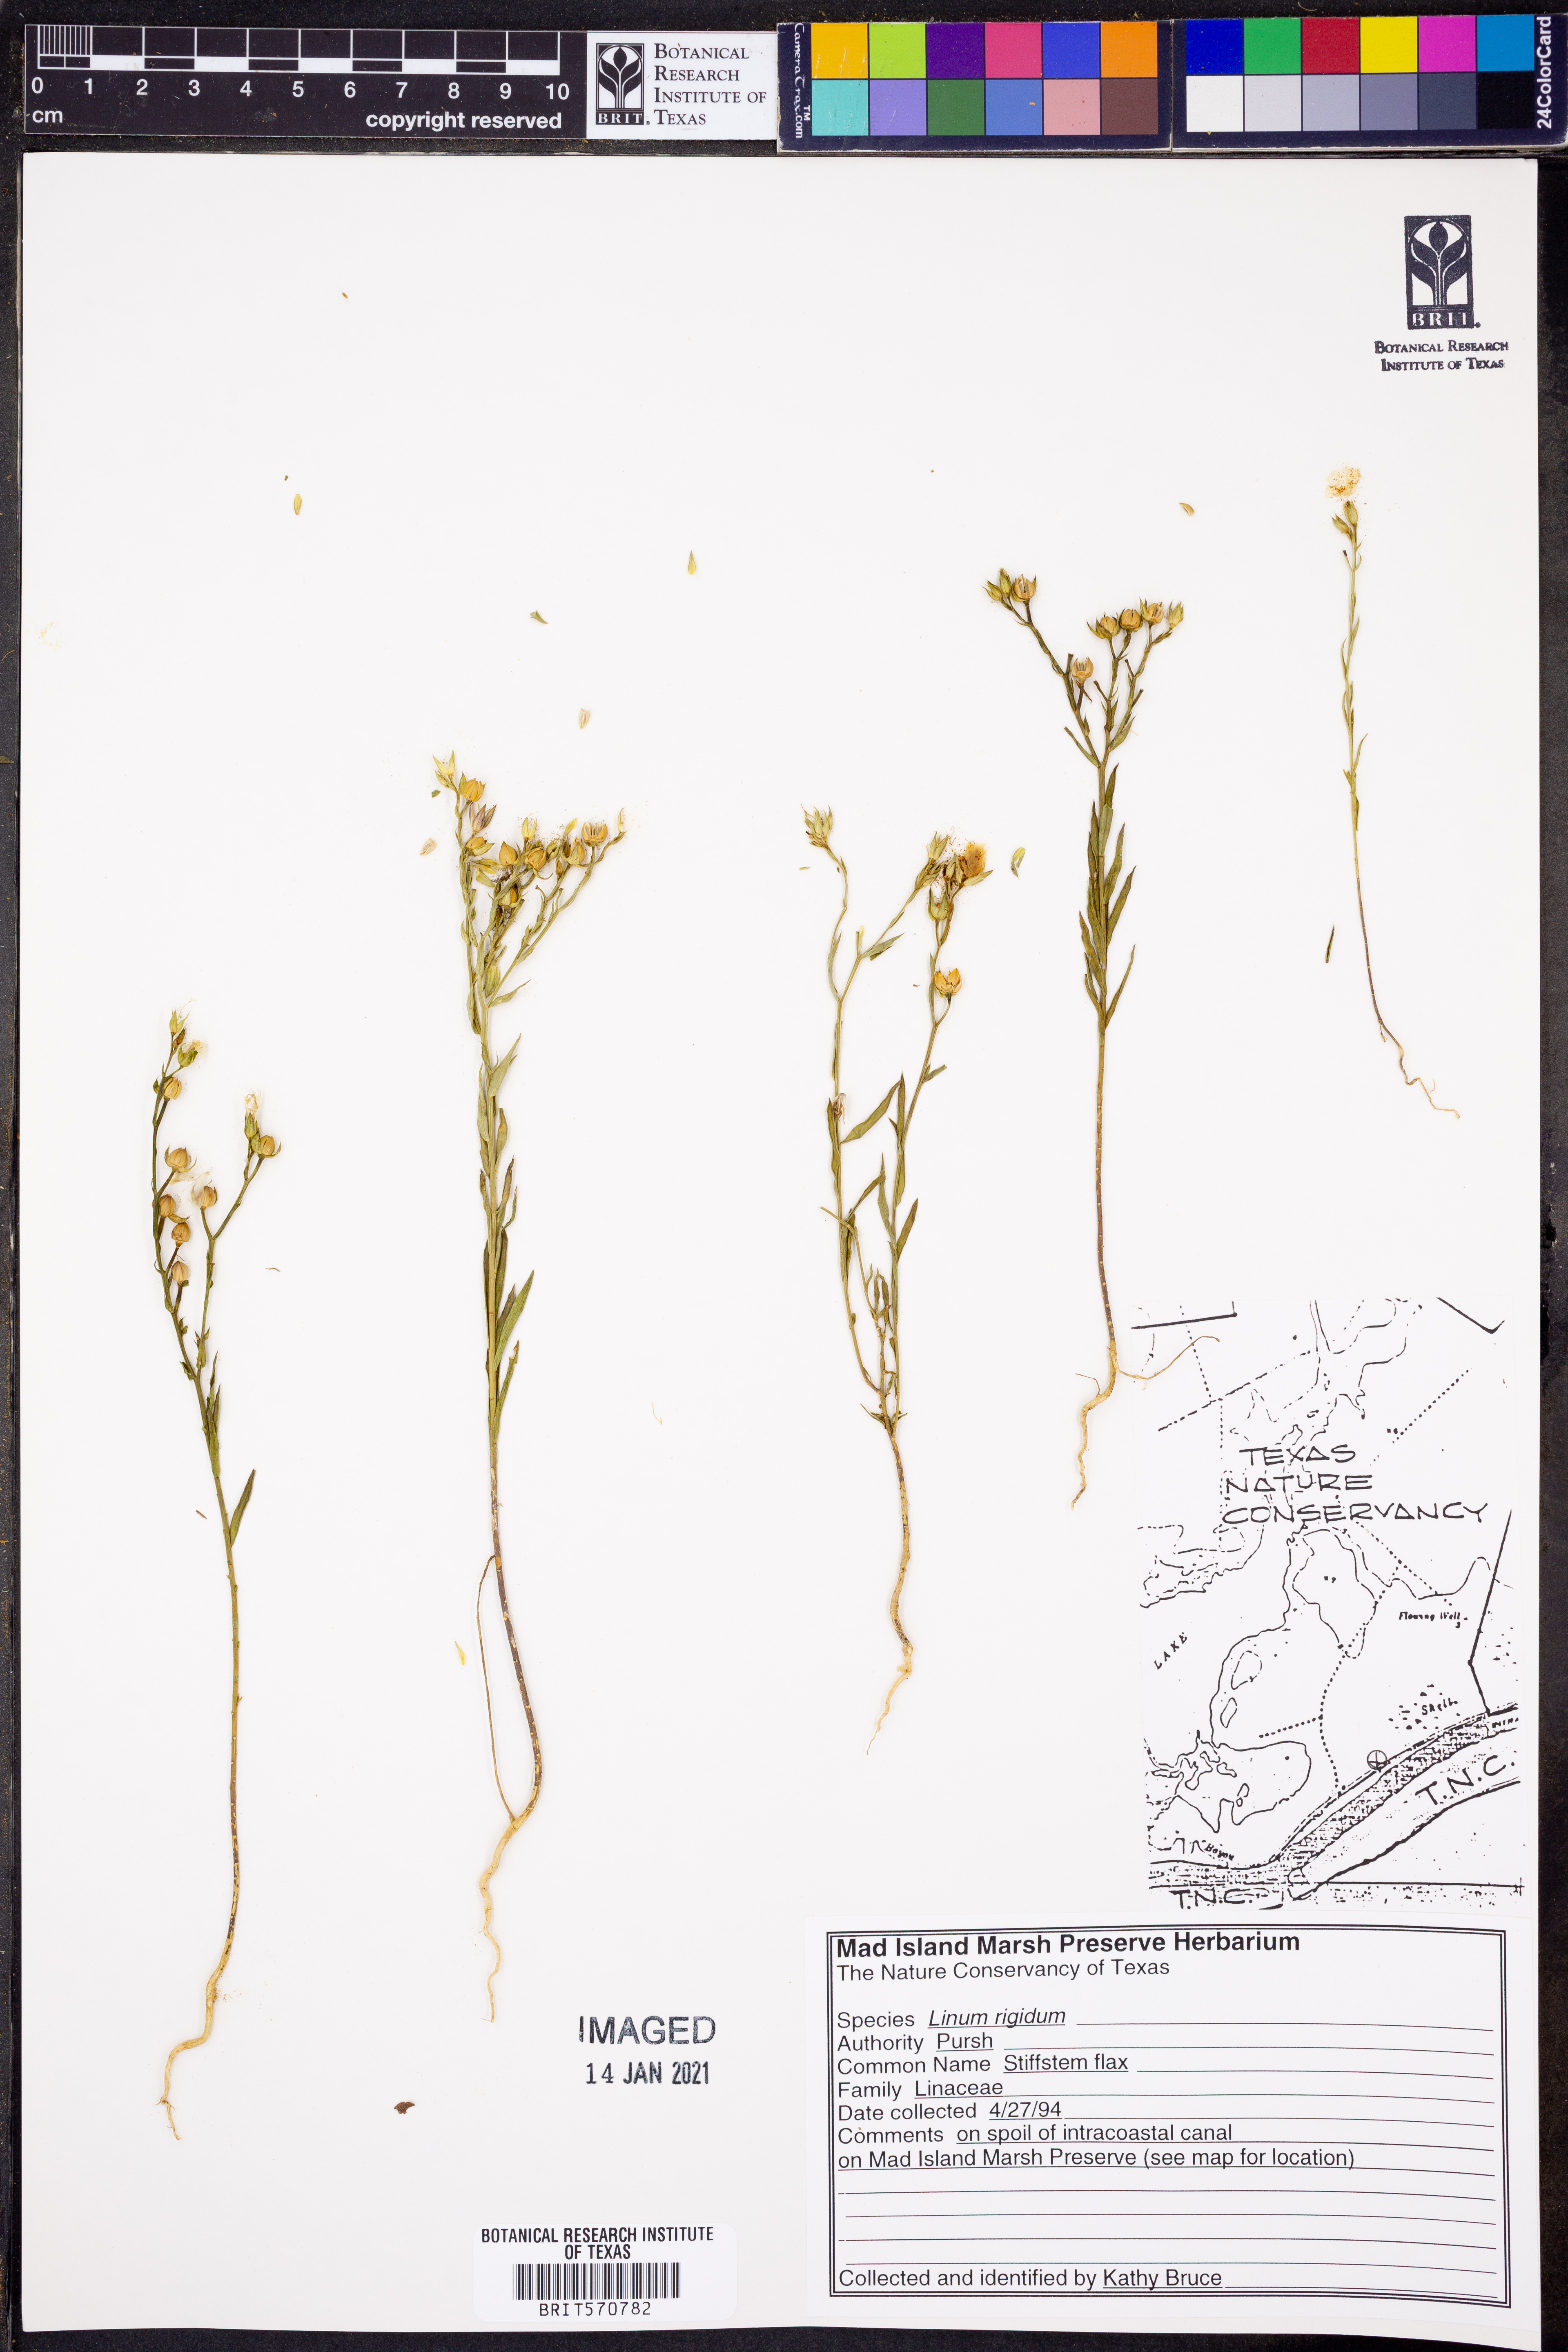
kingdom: Plantae
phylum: Tracheophyta
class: Magnoliopsida
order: Malpighiales
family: Linaceae
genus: Linum
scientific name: Linum rigidum
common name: Stiff-stem flax
